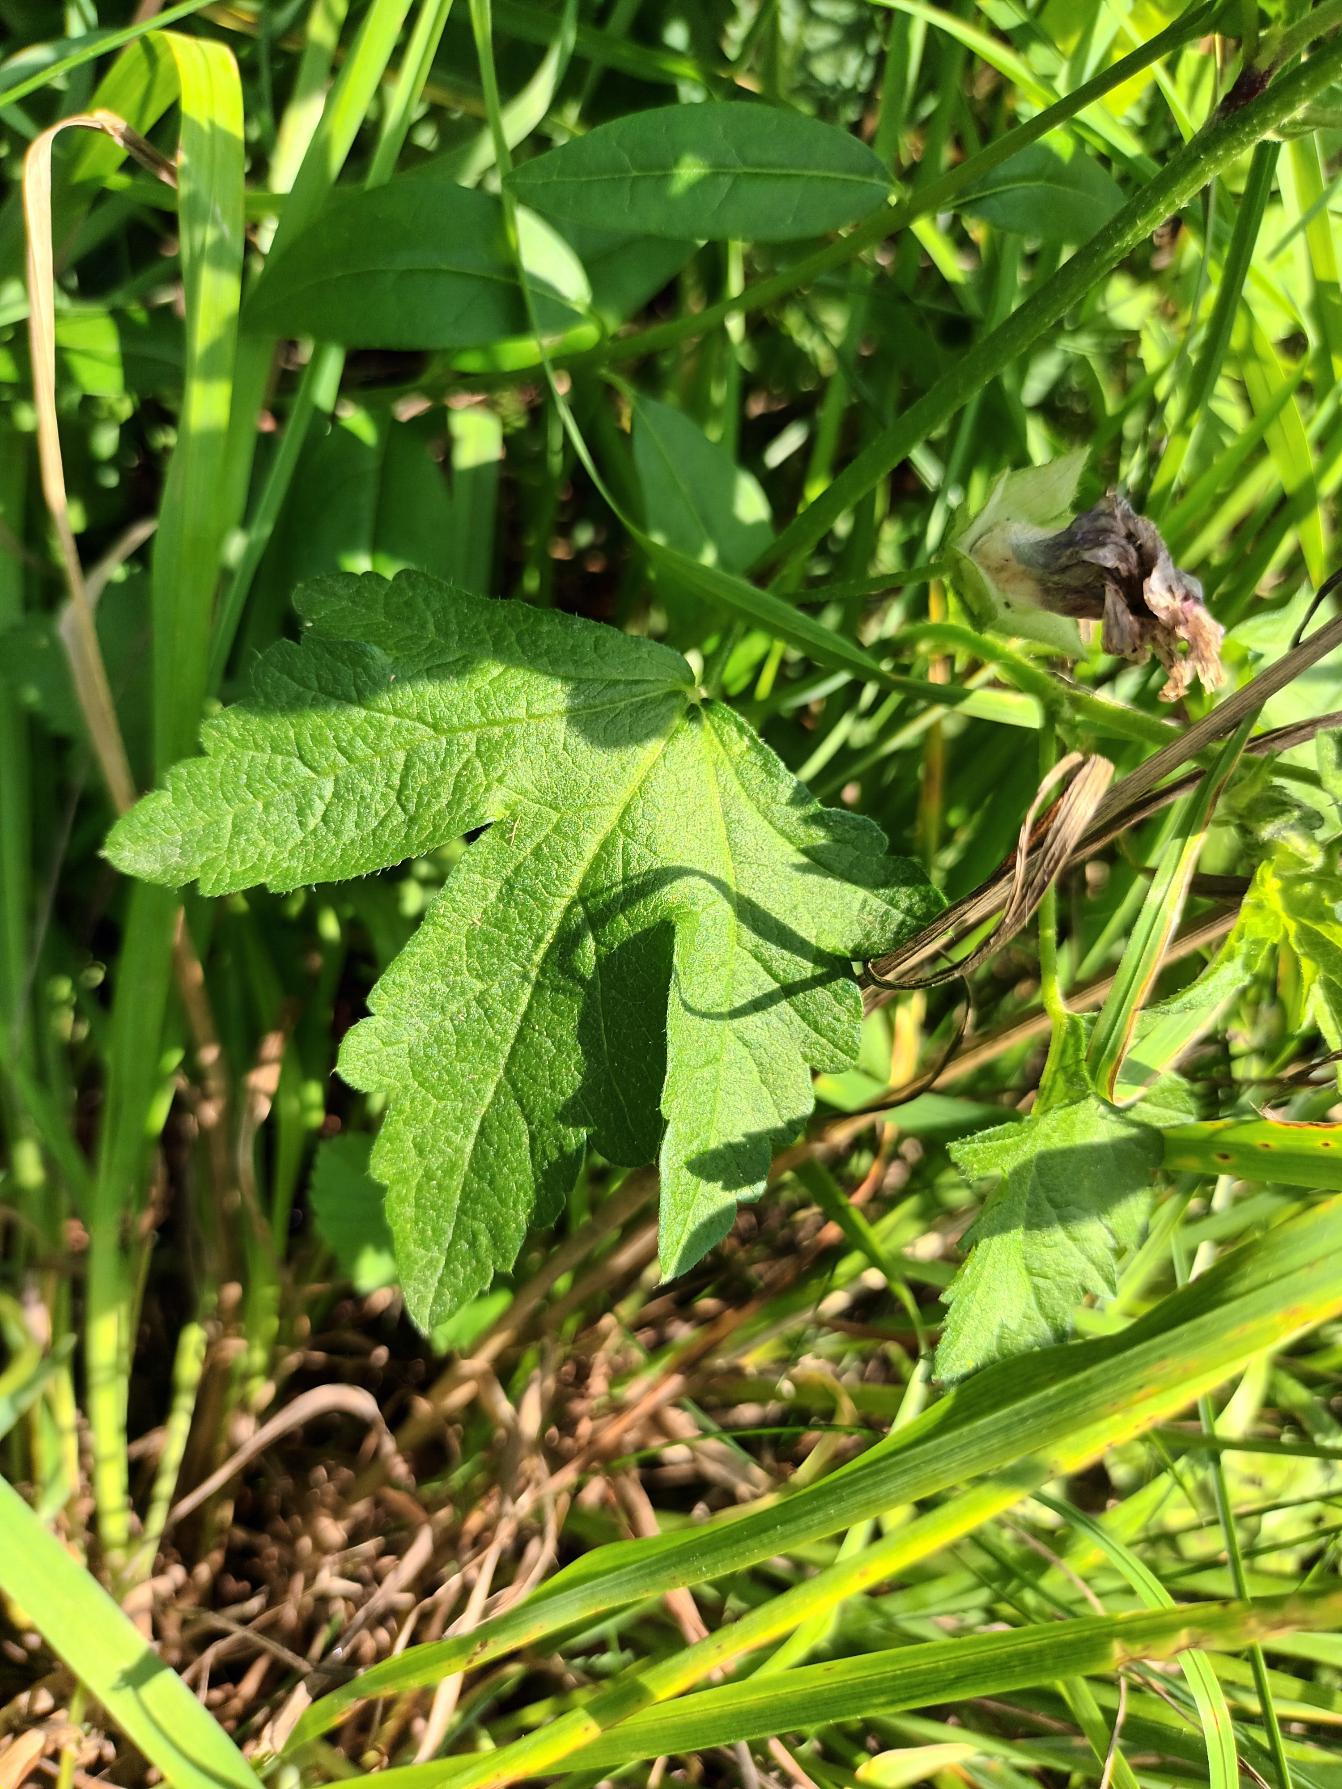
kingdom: Plantae
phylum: Tracheophyta
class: Magnoliopsida
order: Malvales
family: Malvaceae
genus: Malva
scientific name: Malva alcea
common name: Rosen-katost
